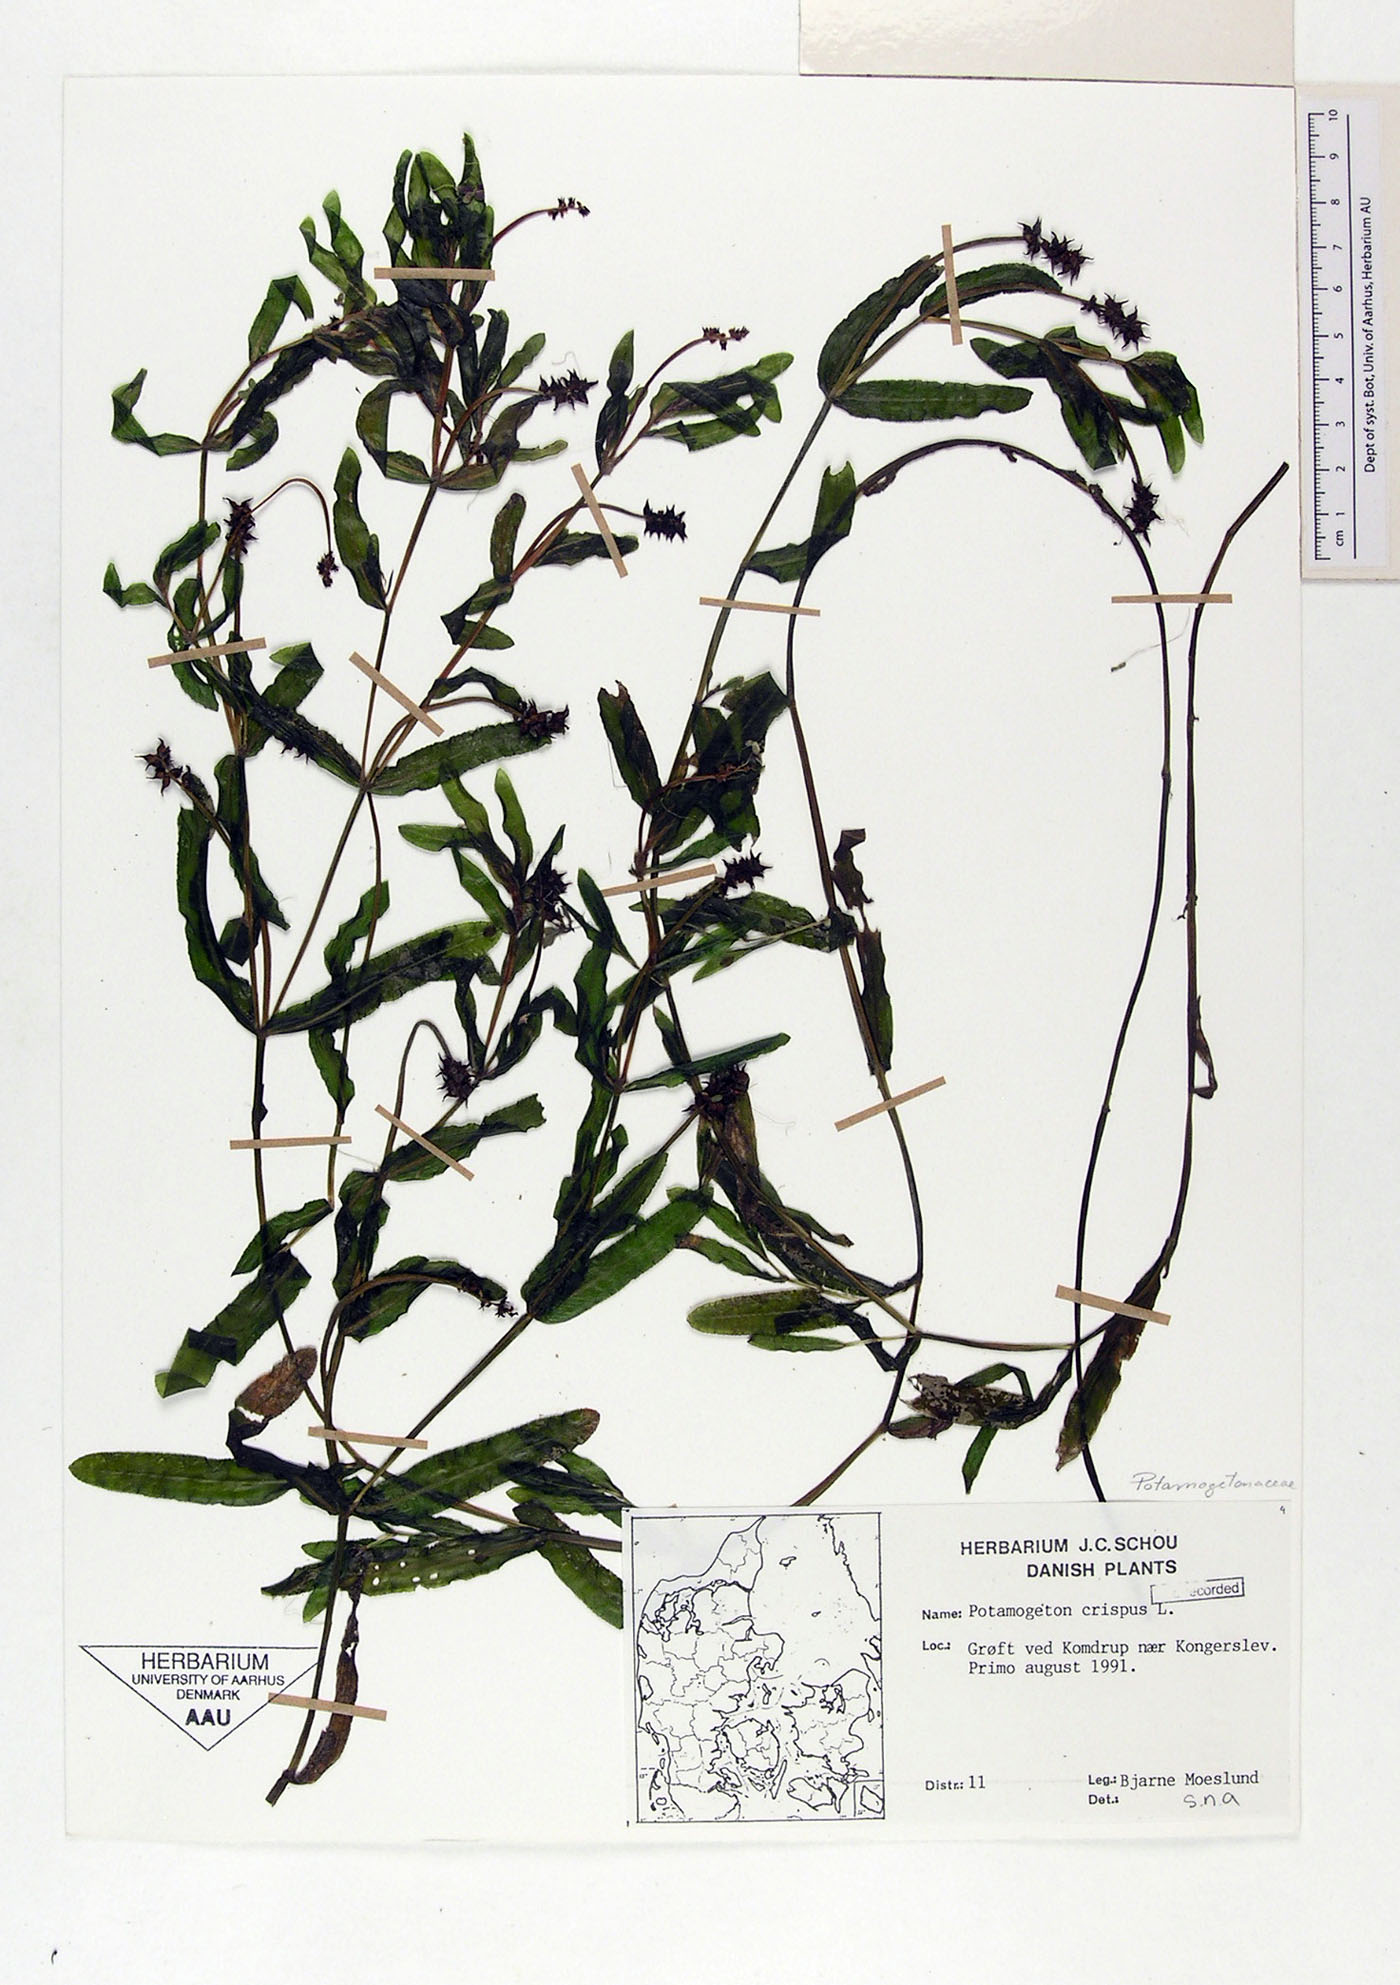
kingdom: Plantae
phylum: Tracheophyta
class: Liliopsida
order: Alismatales
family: Potamogetonaceae
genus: Potamogeton
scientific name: Potamogeton crispus
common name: Curled pondweed
